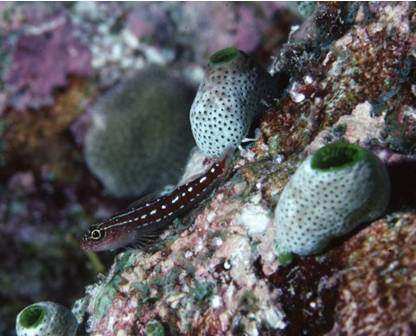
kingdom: Animalia
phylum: Chordata
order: Perciformes
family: Tripterygiidae
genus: Helcogramma
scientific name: Helcogramma maldivensis
